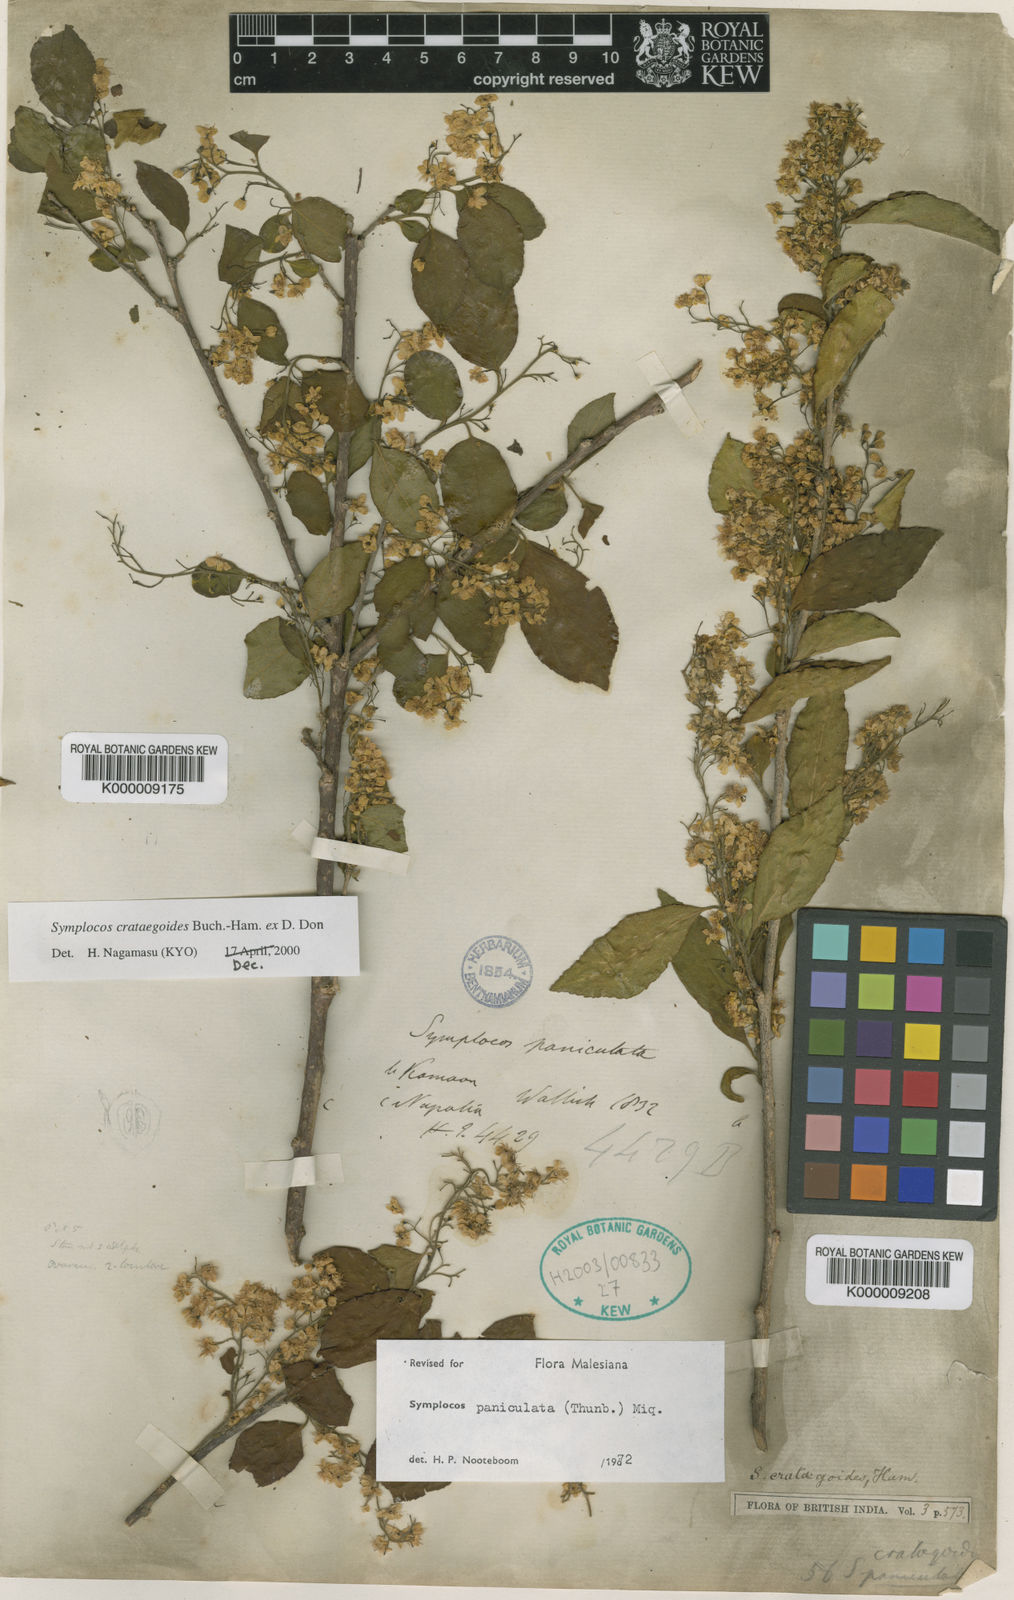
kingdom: Plantae
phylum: Tracheophyta
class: Magnoliopsida
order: Ericales
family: Symplocaceae
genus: Symplocos
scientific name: Symplocos
